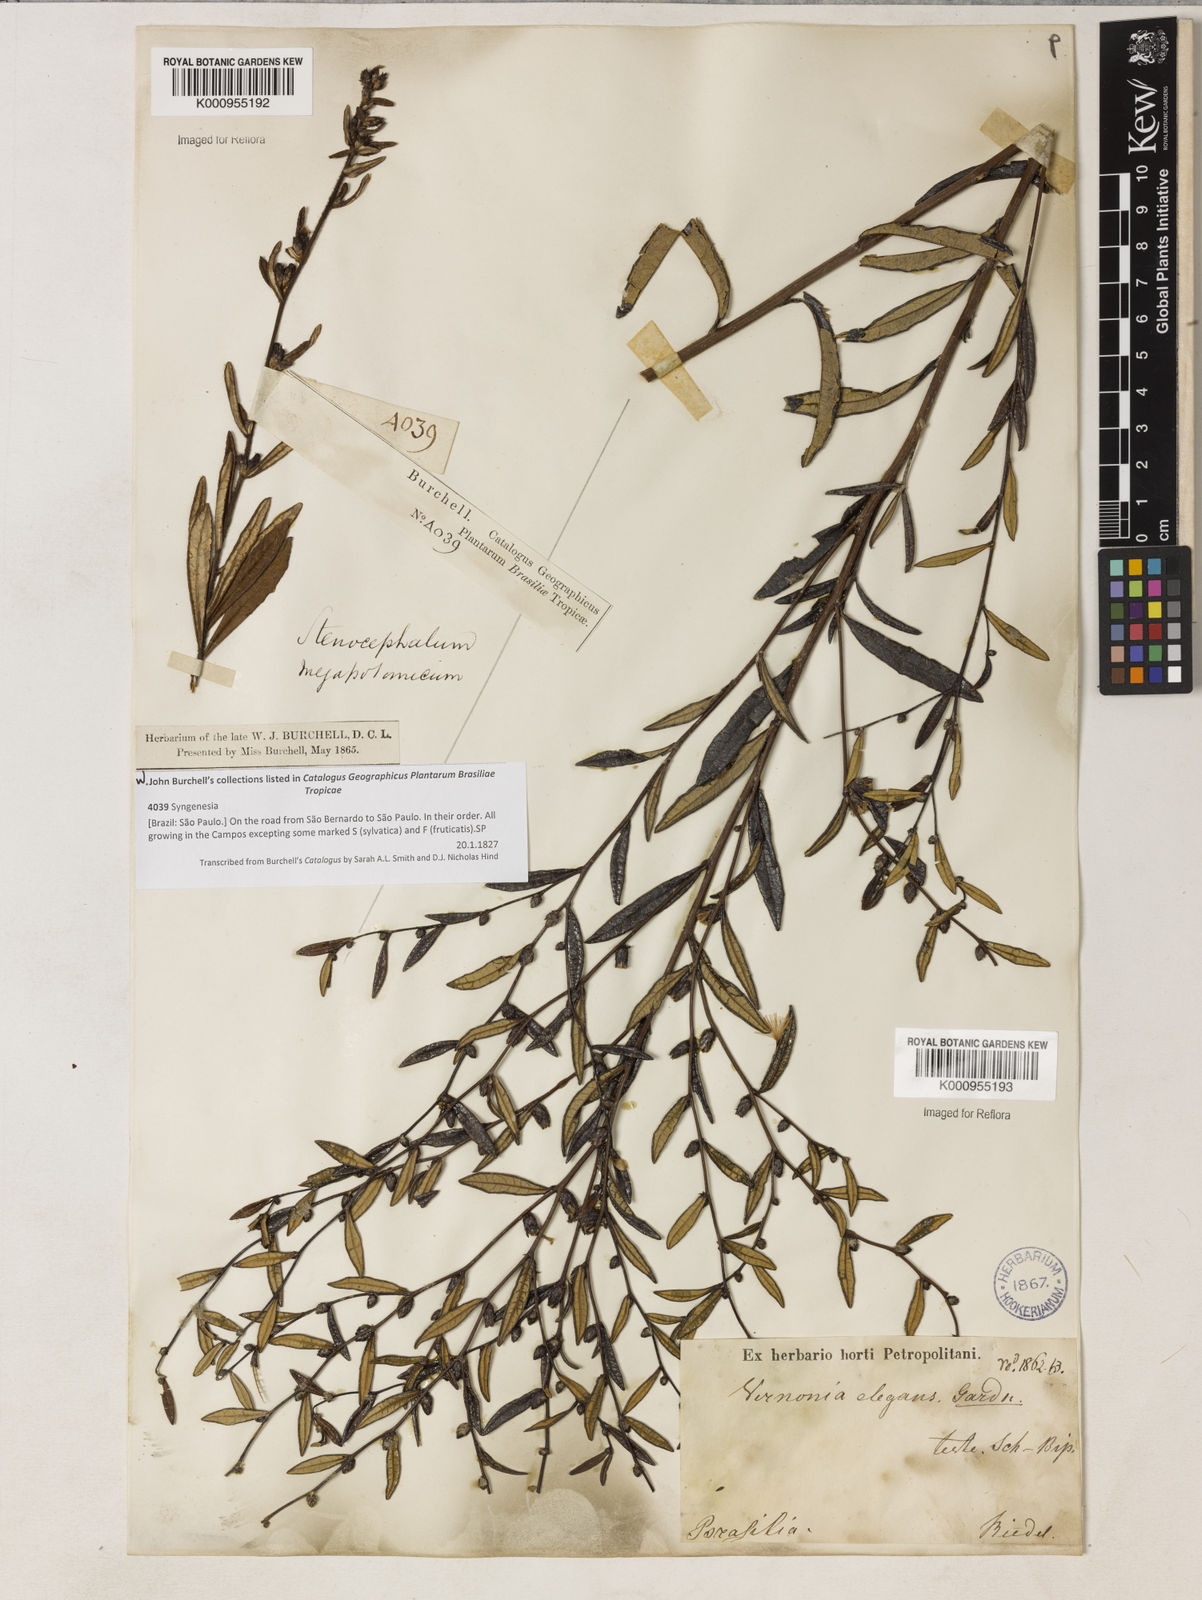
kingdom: Plantae
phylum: Tracheophyta
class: Magnoliopsida
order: Asterales
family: Asteraceae
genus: Lessingianthus
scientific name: Lessingianthus elegans
